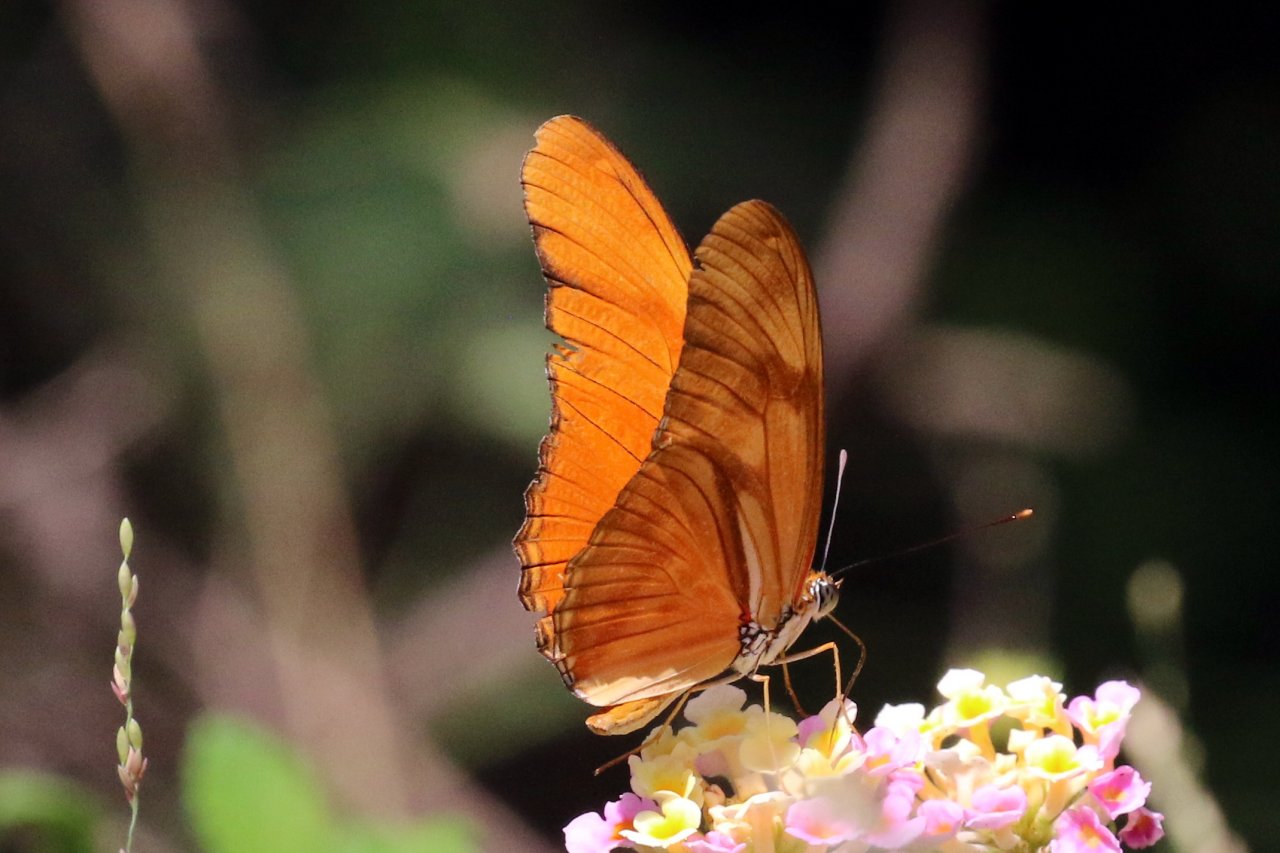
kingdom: Animalia
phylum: Arthropoda
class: Insecta
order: Lepidoptera
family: Nymphalidae
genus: Dryas
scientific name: Dryas iulia
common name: Julia
